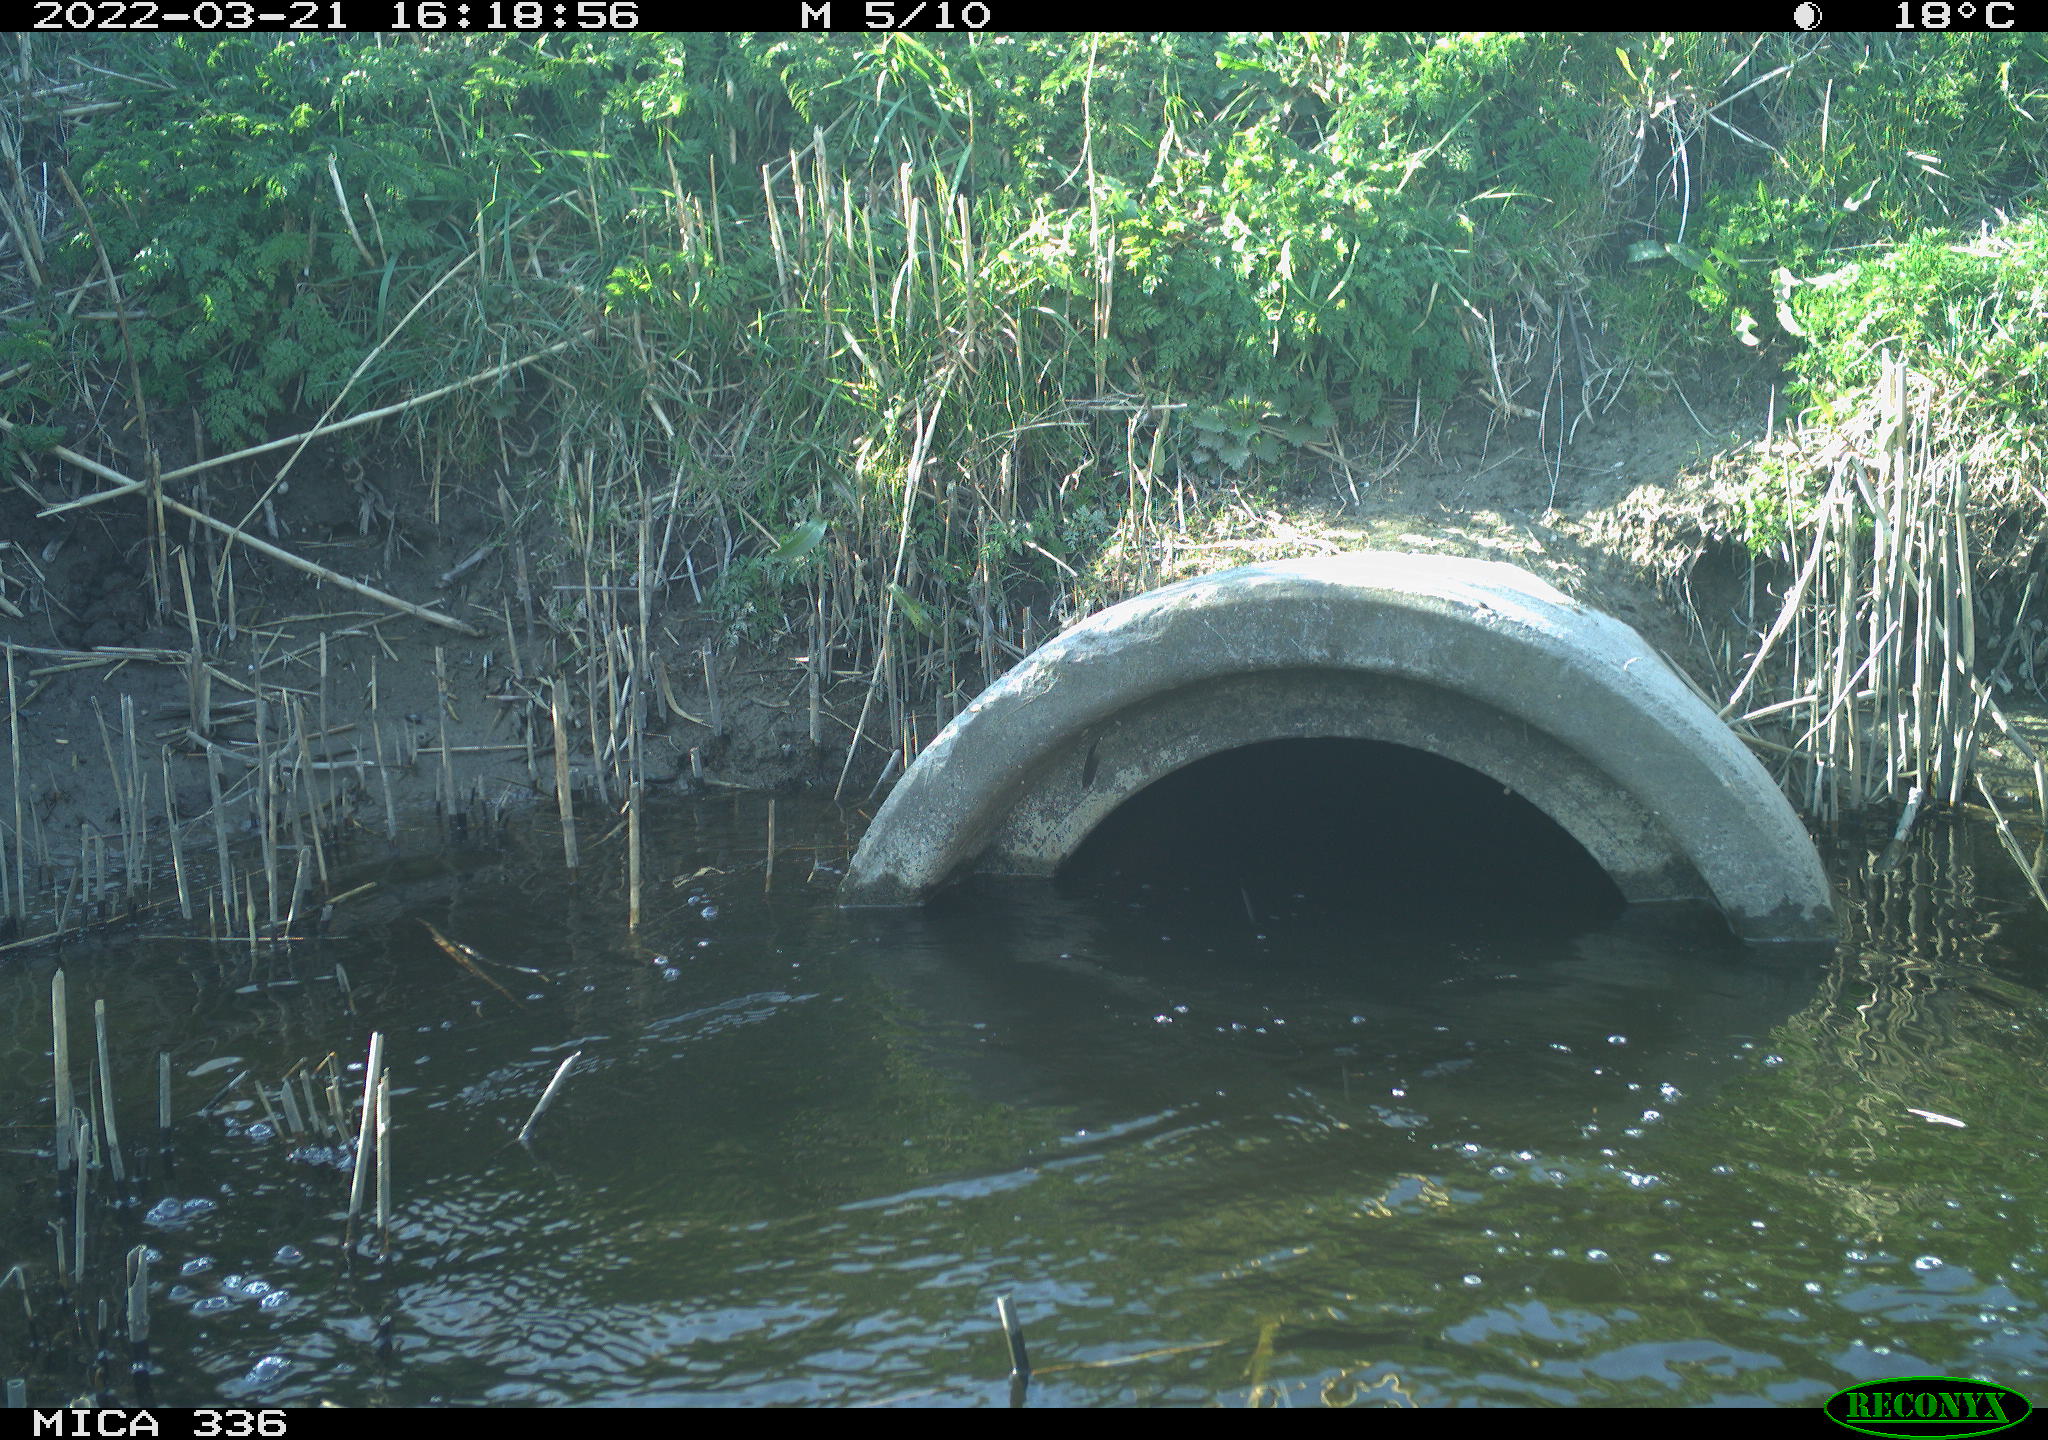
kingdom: Animalia
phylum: Chordata
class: Aves
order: Suliformes
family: Phalacrocoracidae
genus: Phalacrocorax
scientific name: Phalacrocorax carbo
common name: Great cormorant
